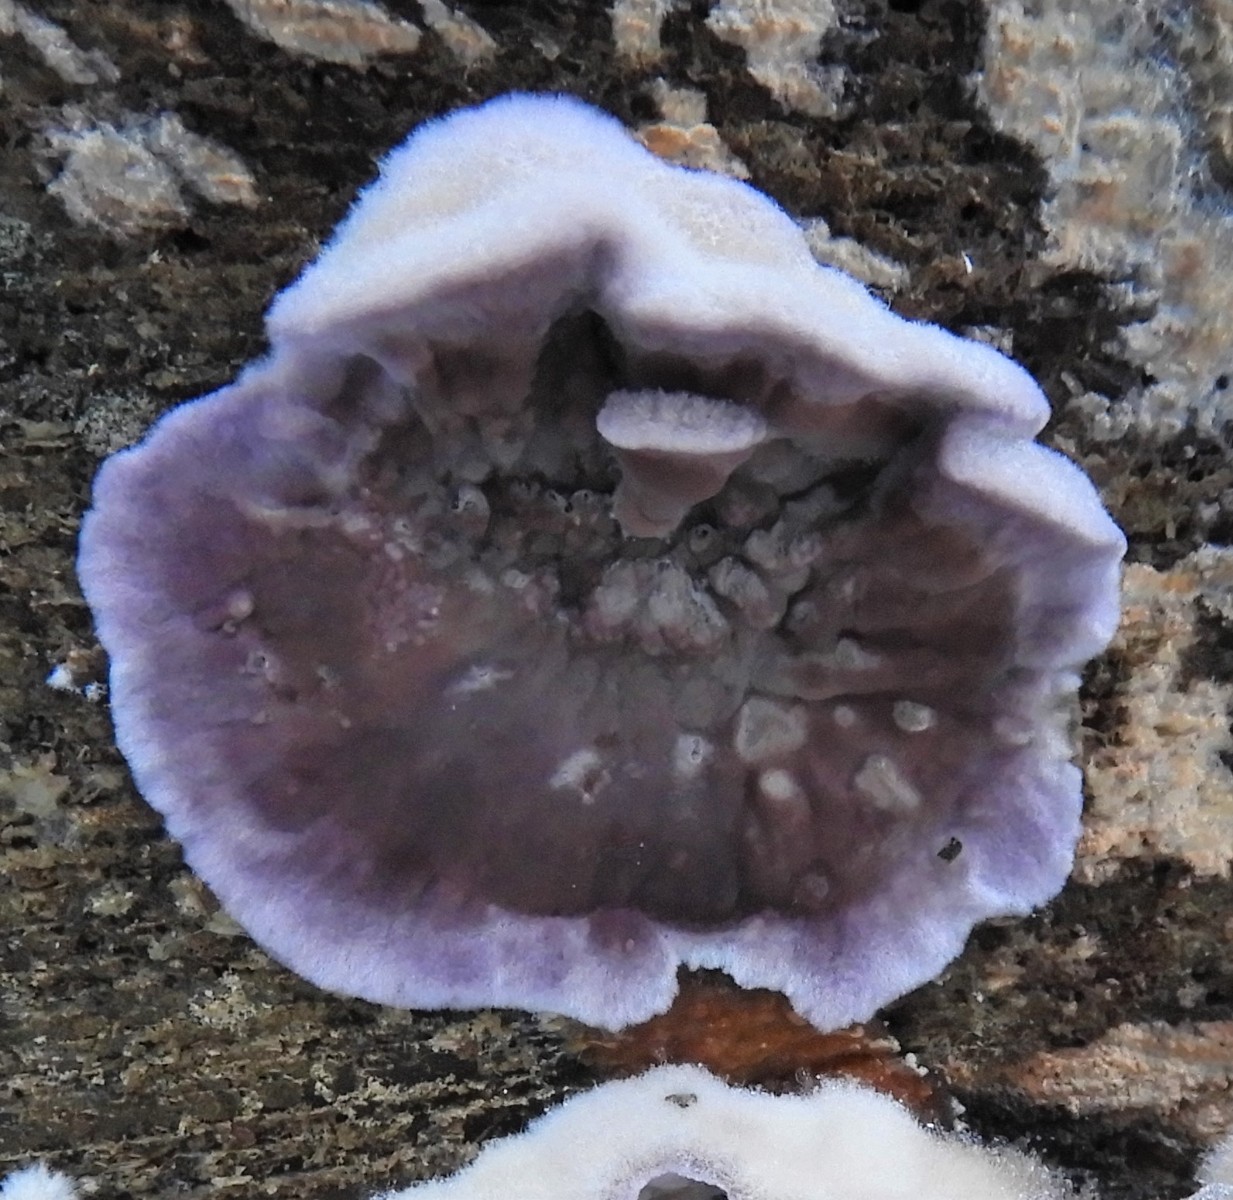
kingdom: Fungi
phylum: Basidiomycota
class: Agaricomycetes
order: Agaricales
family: Cyphellaceae
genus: Chondrostereum
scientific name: Chondrostereum purpureum
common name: purpurlædersvamp
